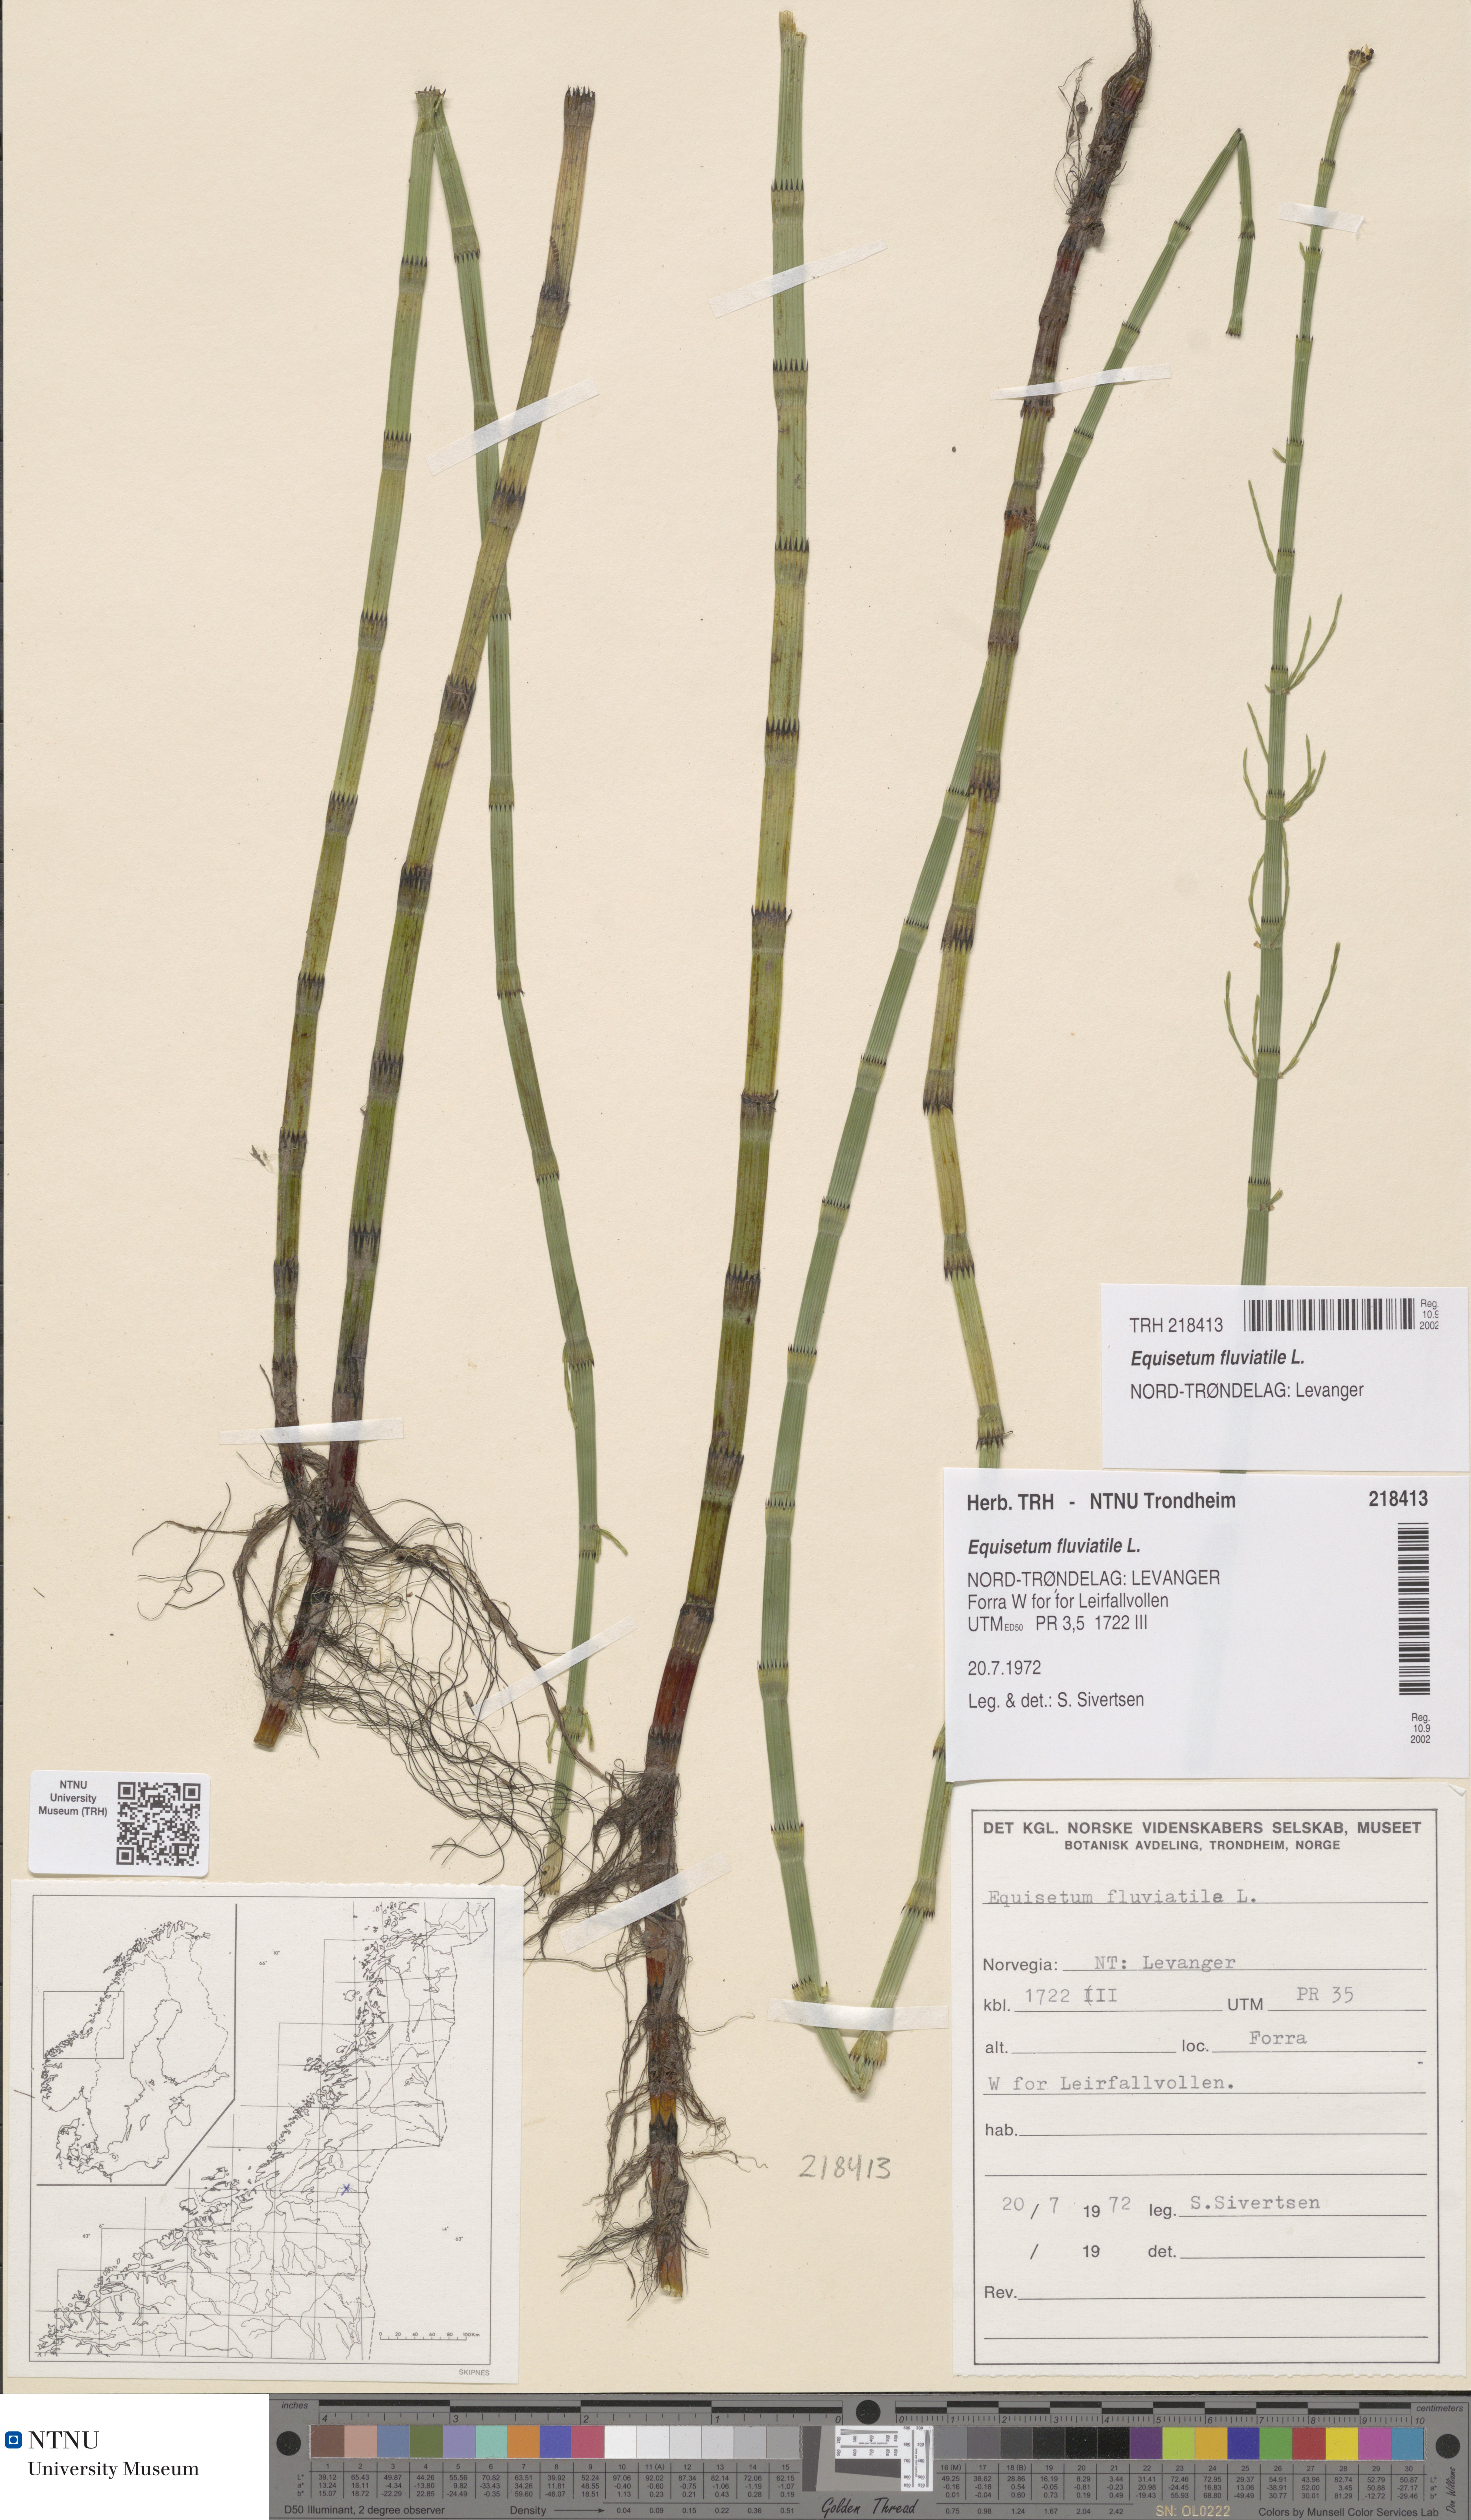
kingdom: Plantae
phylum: Tracheophyta
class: Polypodiopsida
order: Equisetales
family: Equisetaceae
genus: Equisetum
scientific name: Equisetum fluviatile
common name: Water horsetail
